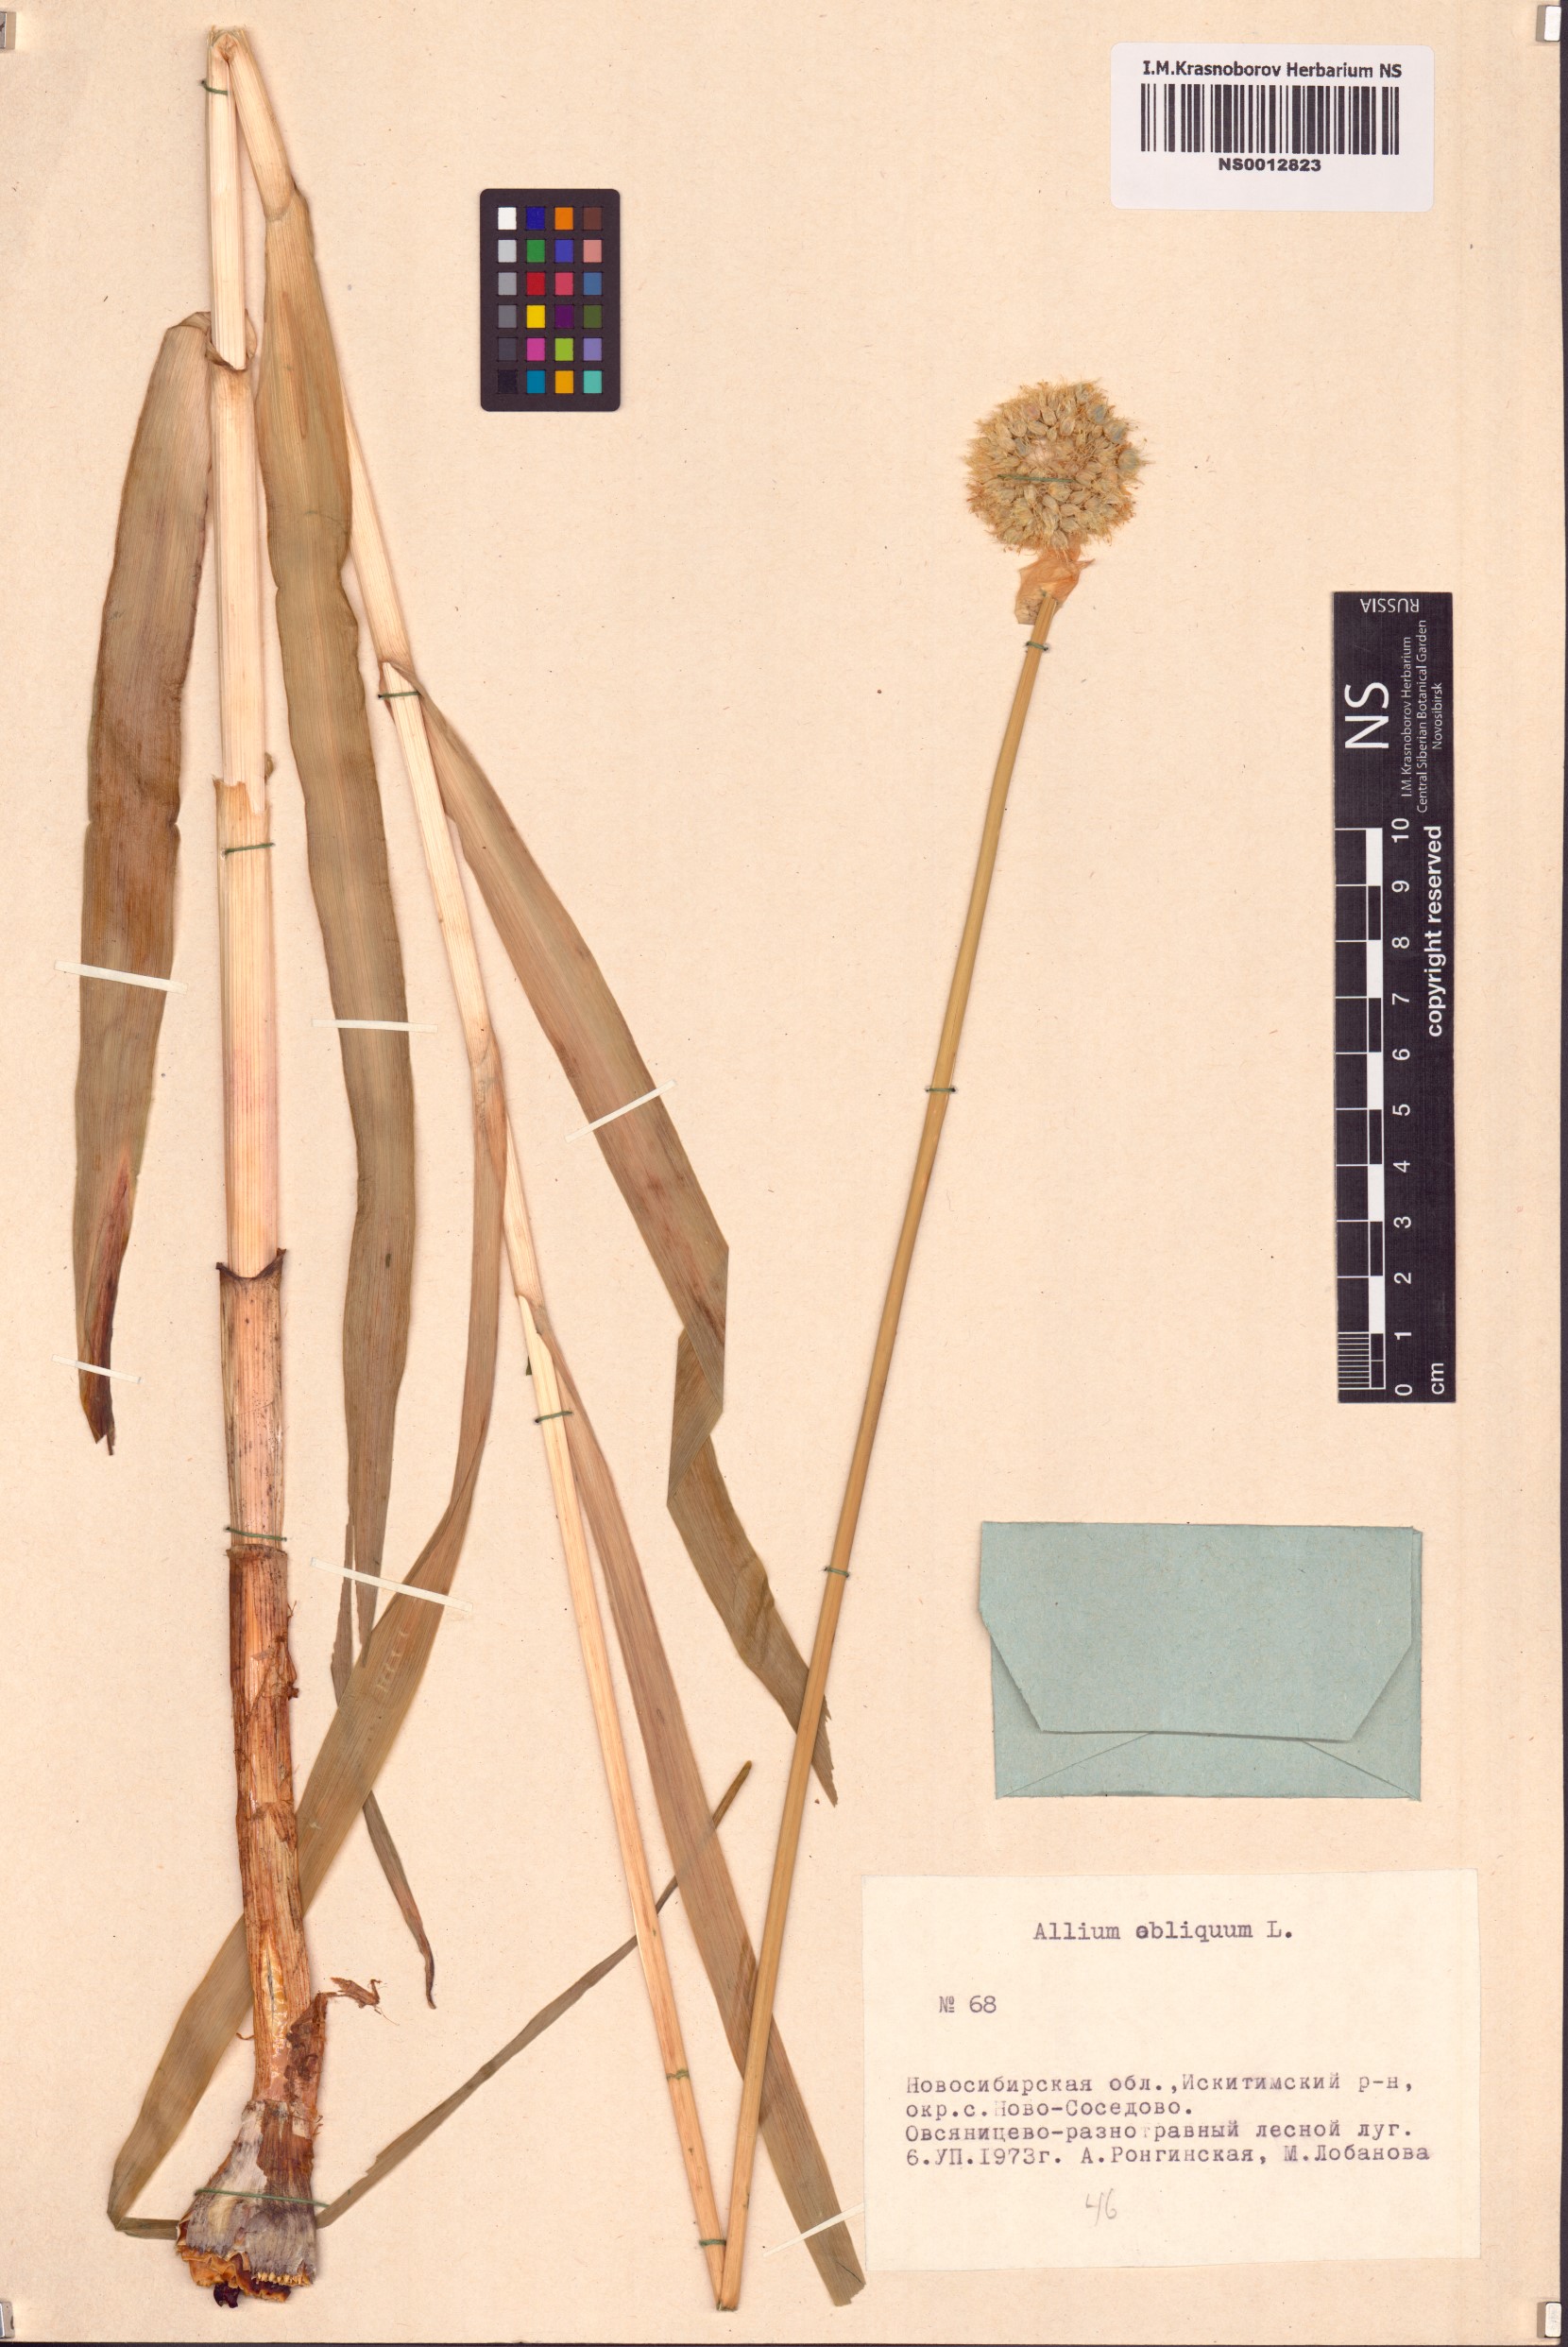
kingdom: Plantae
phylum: Tracheophyta
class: Liliopsida
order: Asparagales
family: Amaryllidaceae
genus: Allium
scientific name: Allium obliquum
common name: Oblique onion
